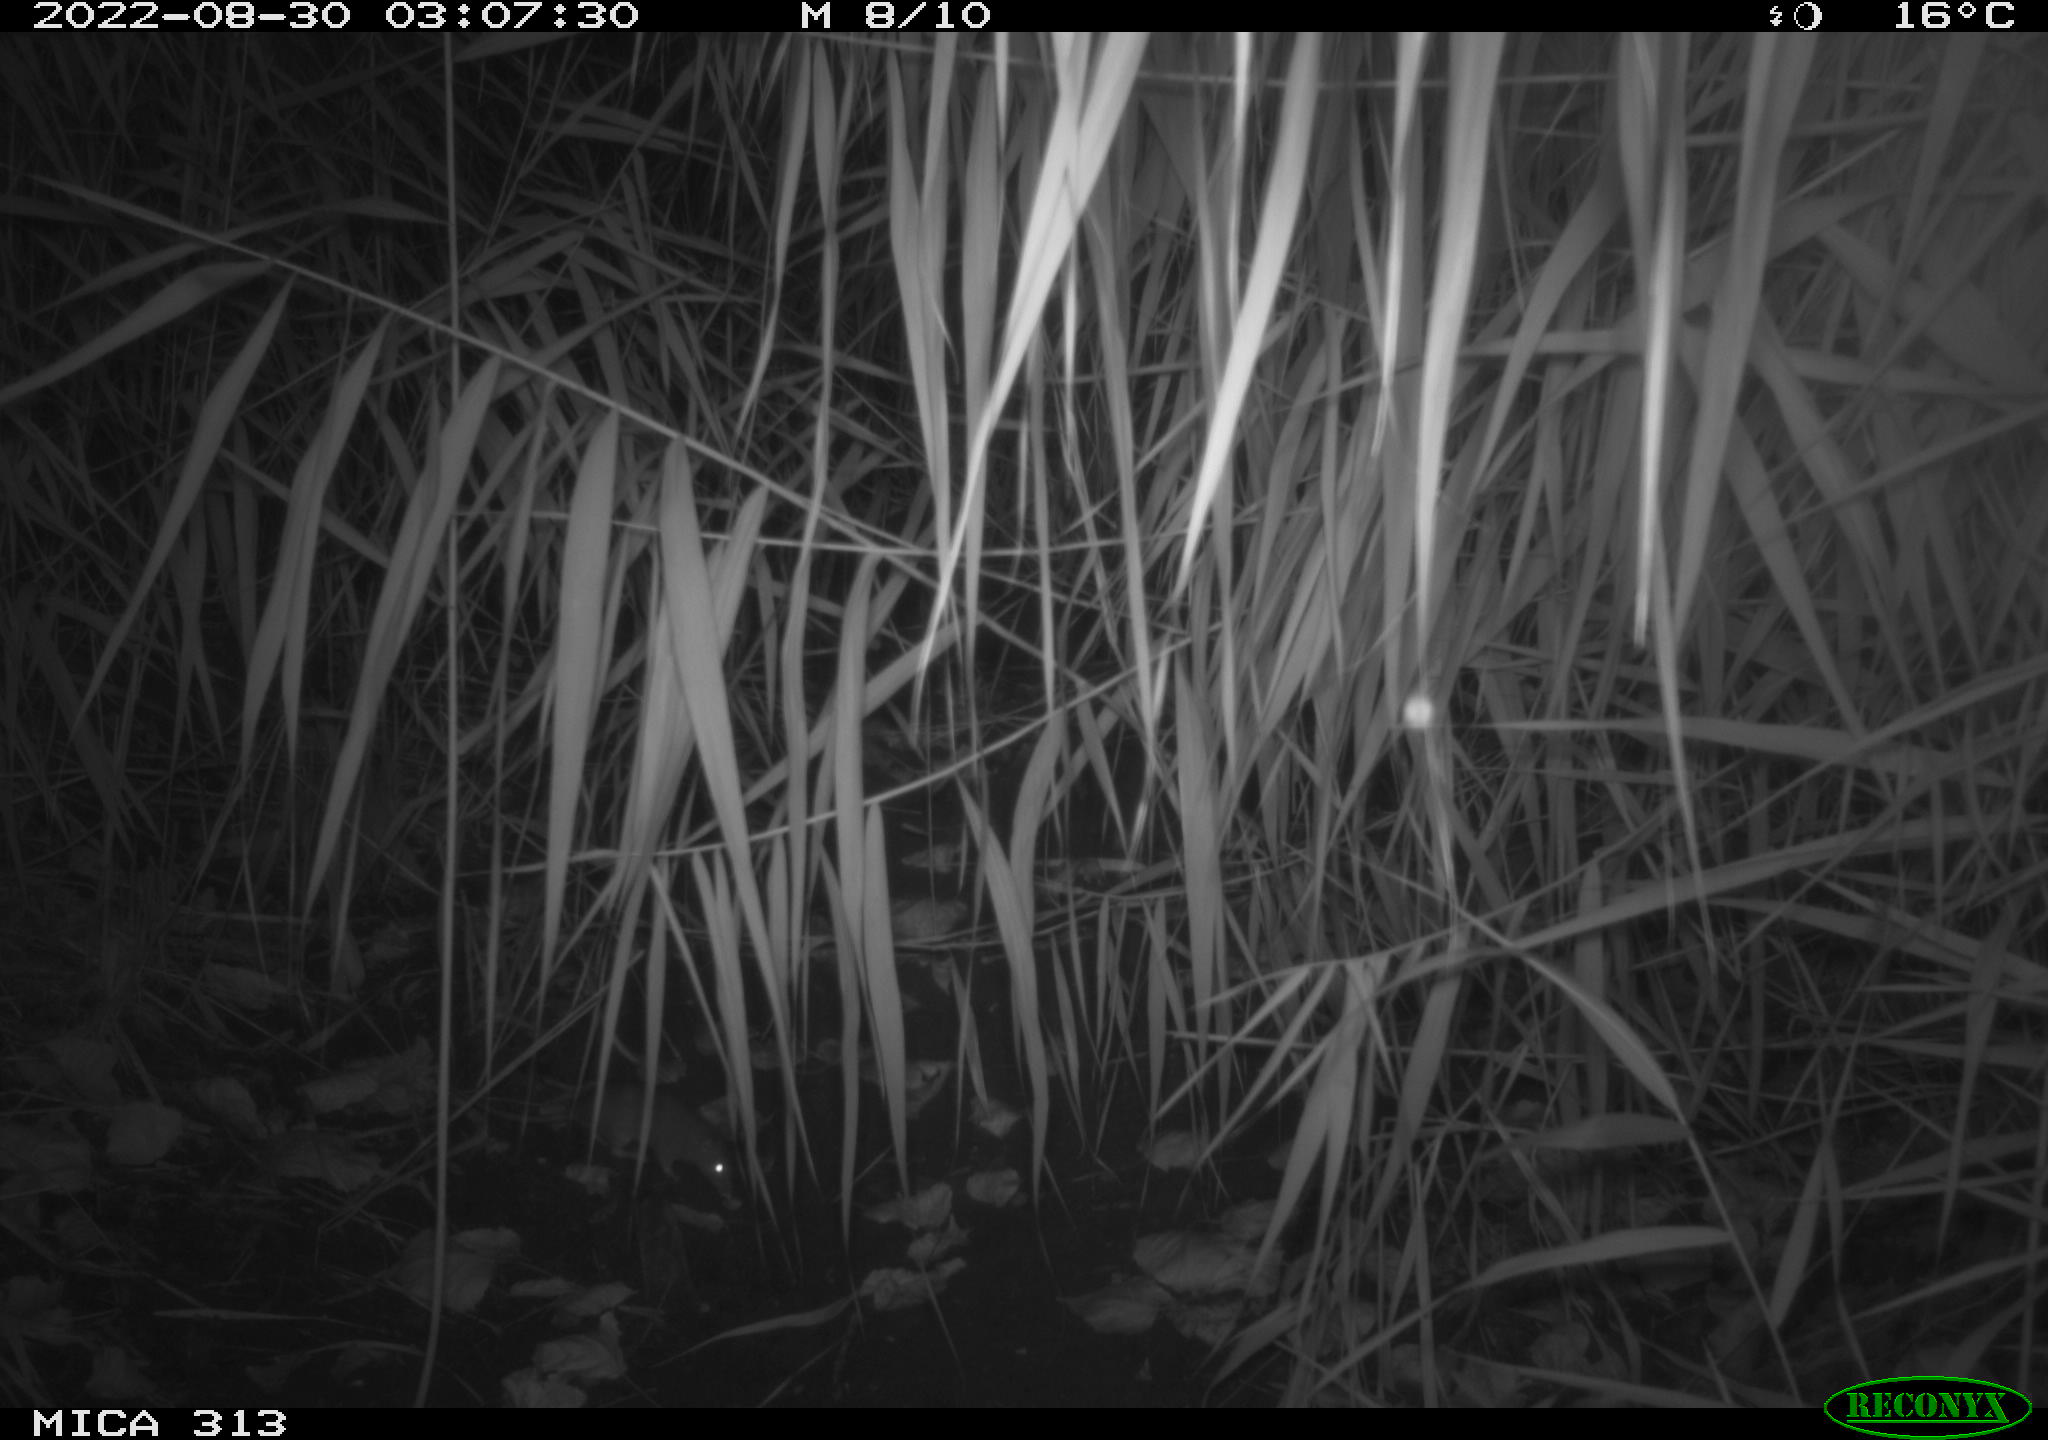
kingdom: Animalia
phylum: Chordata
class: Mammalia
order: Rodentia
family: Muridae
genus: Rattus
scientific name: Rattus norvegicus
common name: Brown rat
